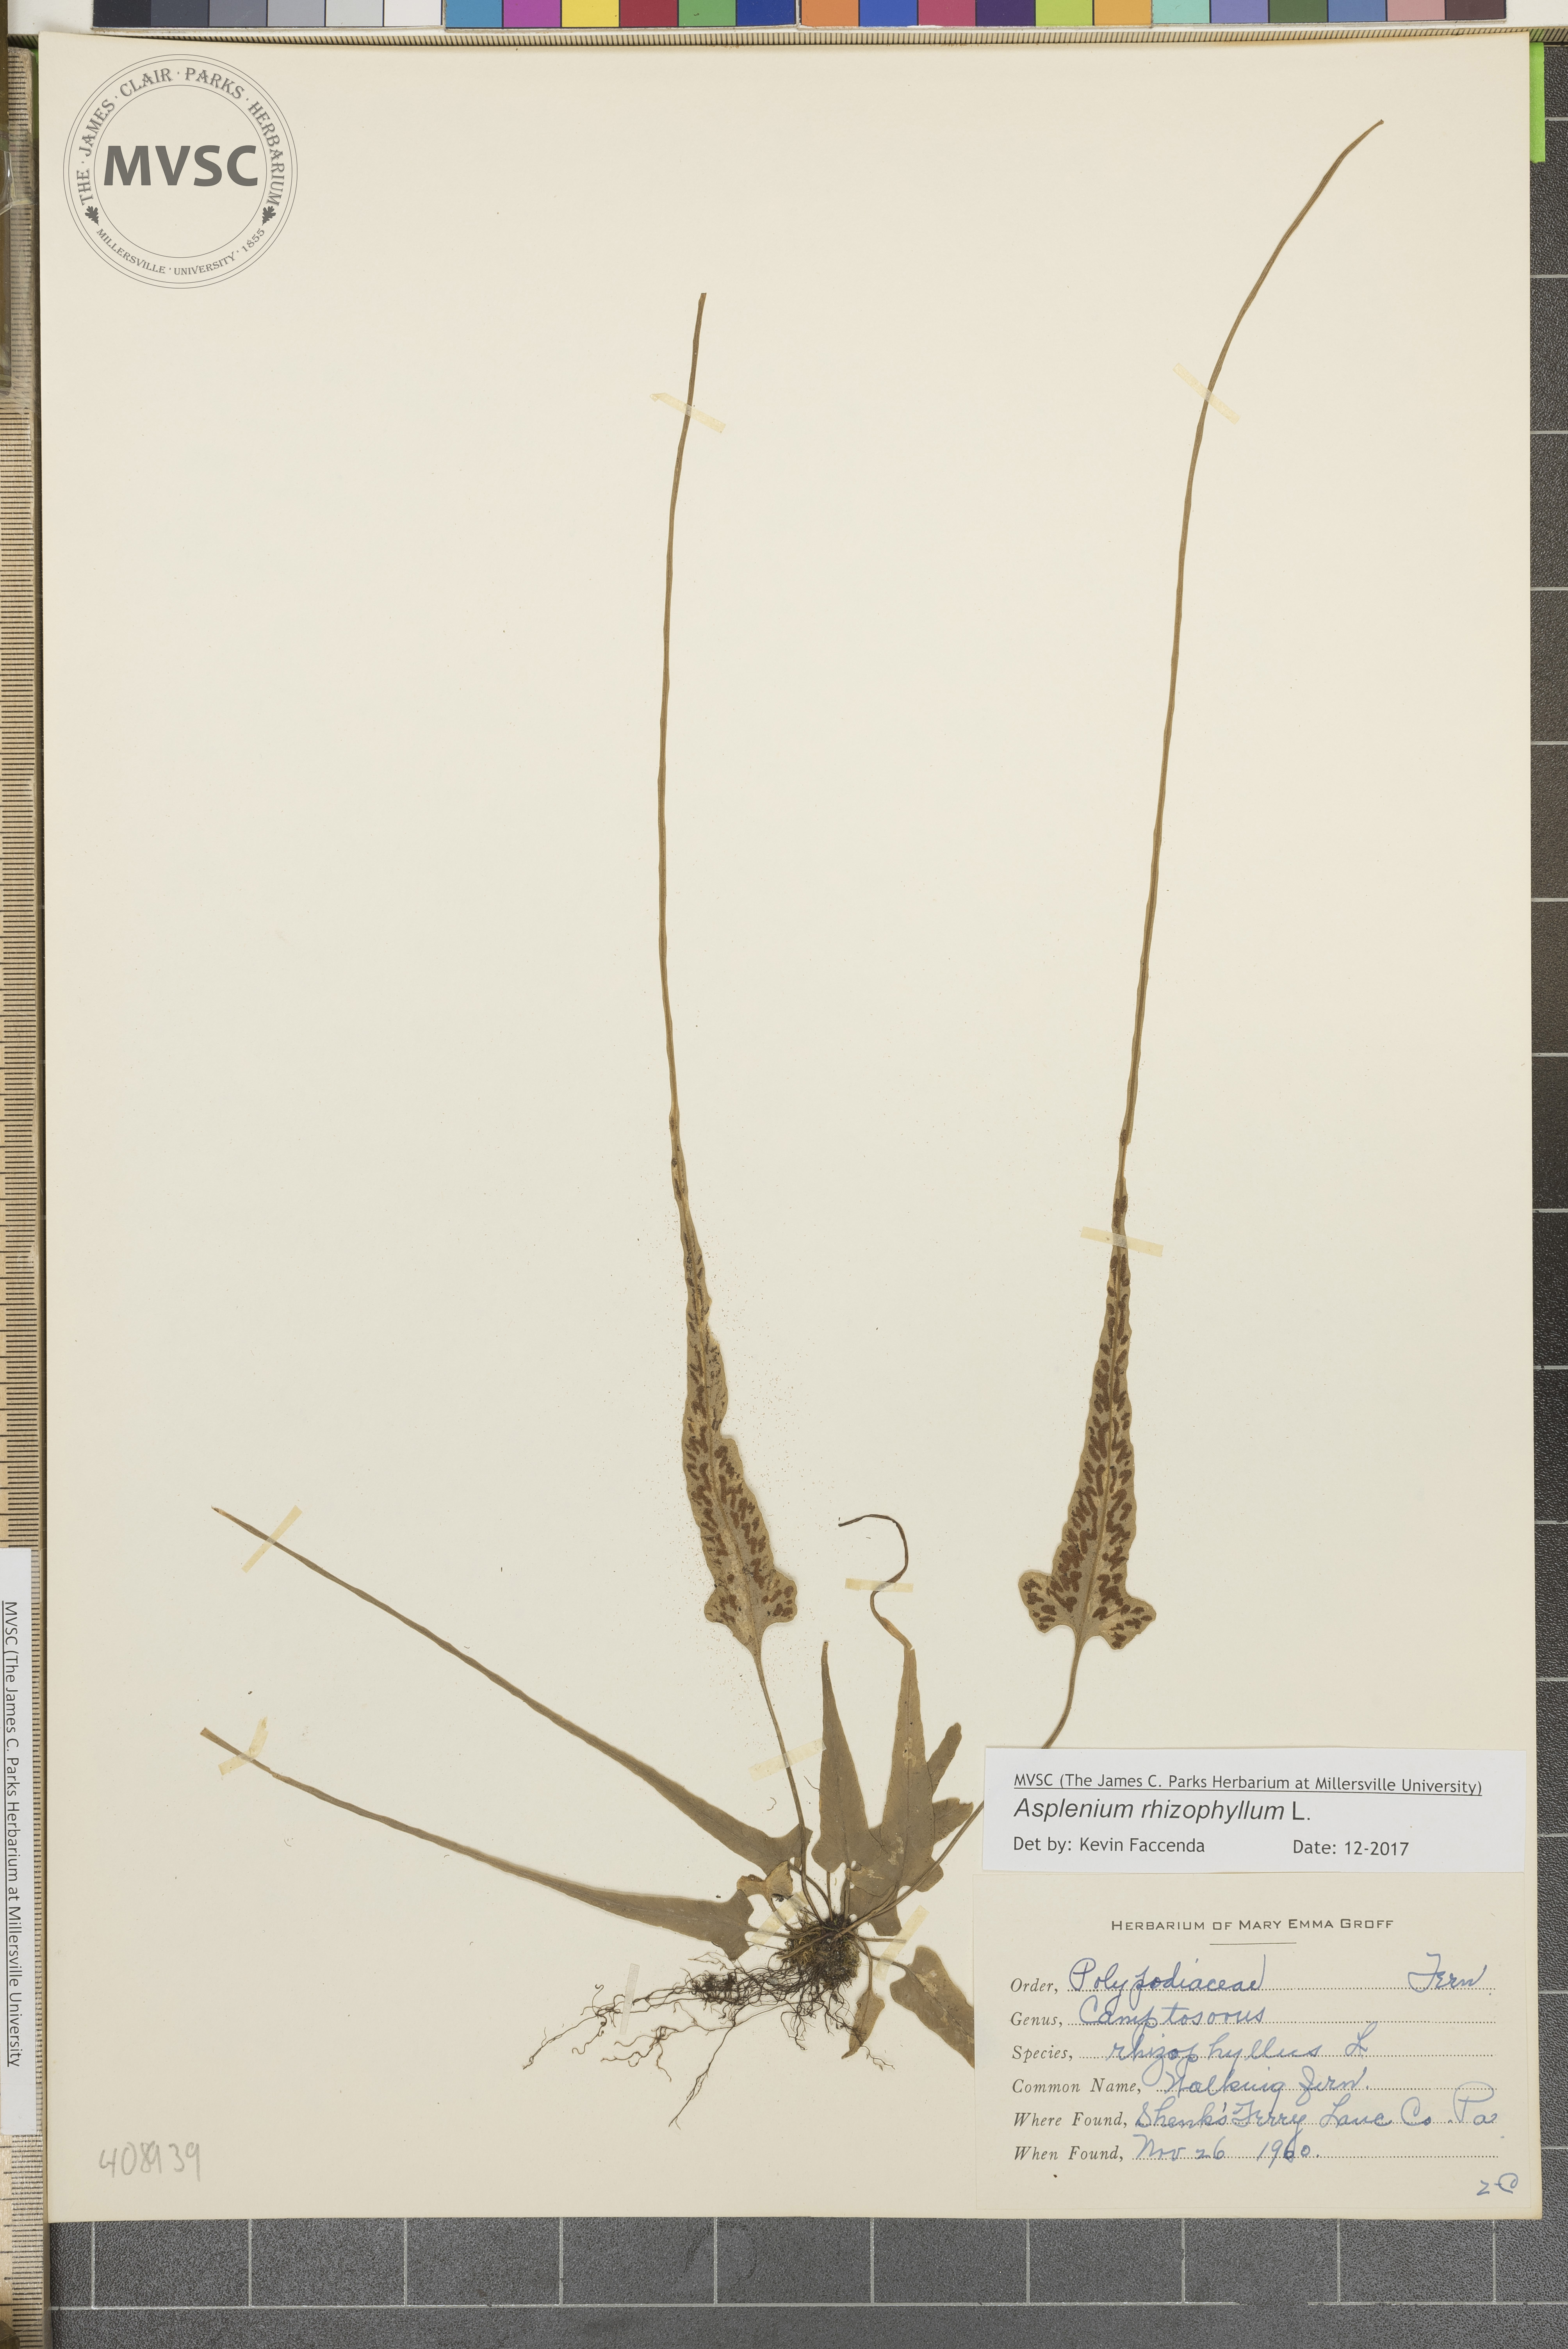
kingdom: Plantae
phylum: Tracheophyta
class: Polypodiopsida
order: Polypodiales
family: Aspleniaceae
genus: Asplenium
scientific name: Asplenium rhizophyllum
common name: Walking fern
